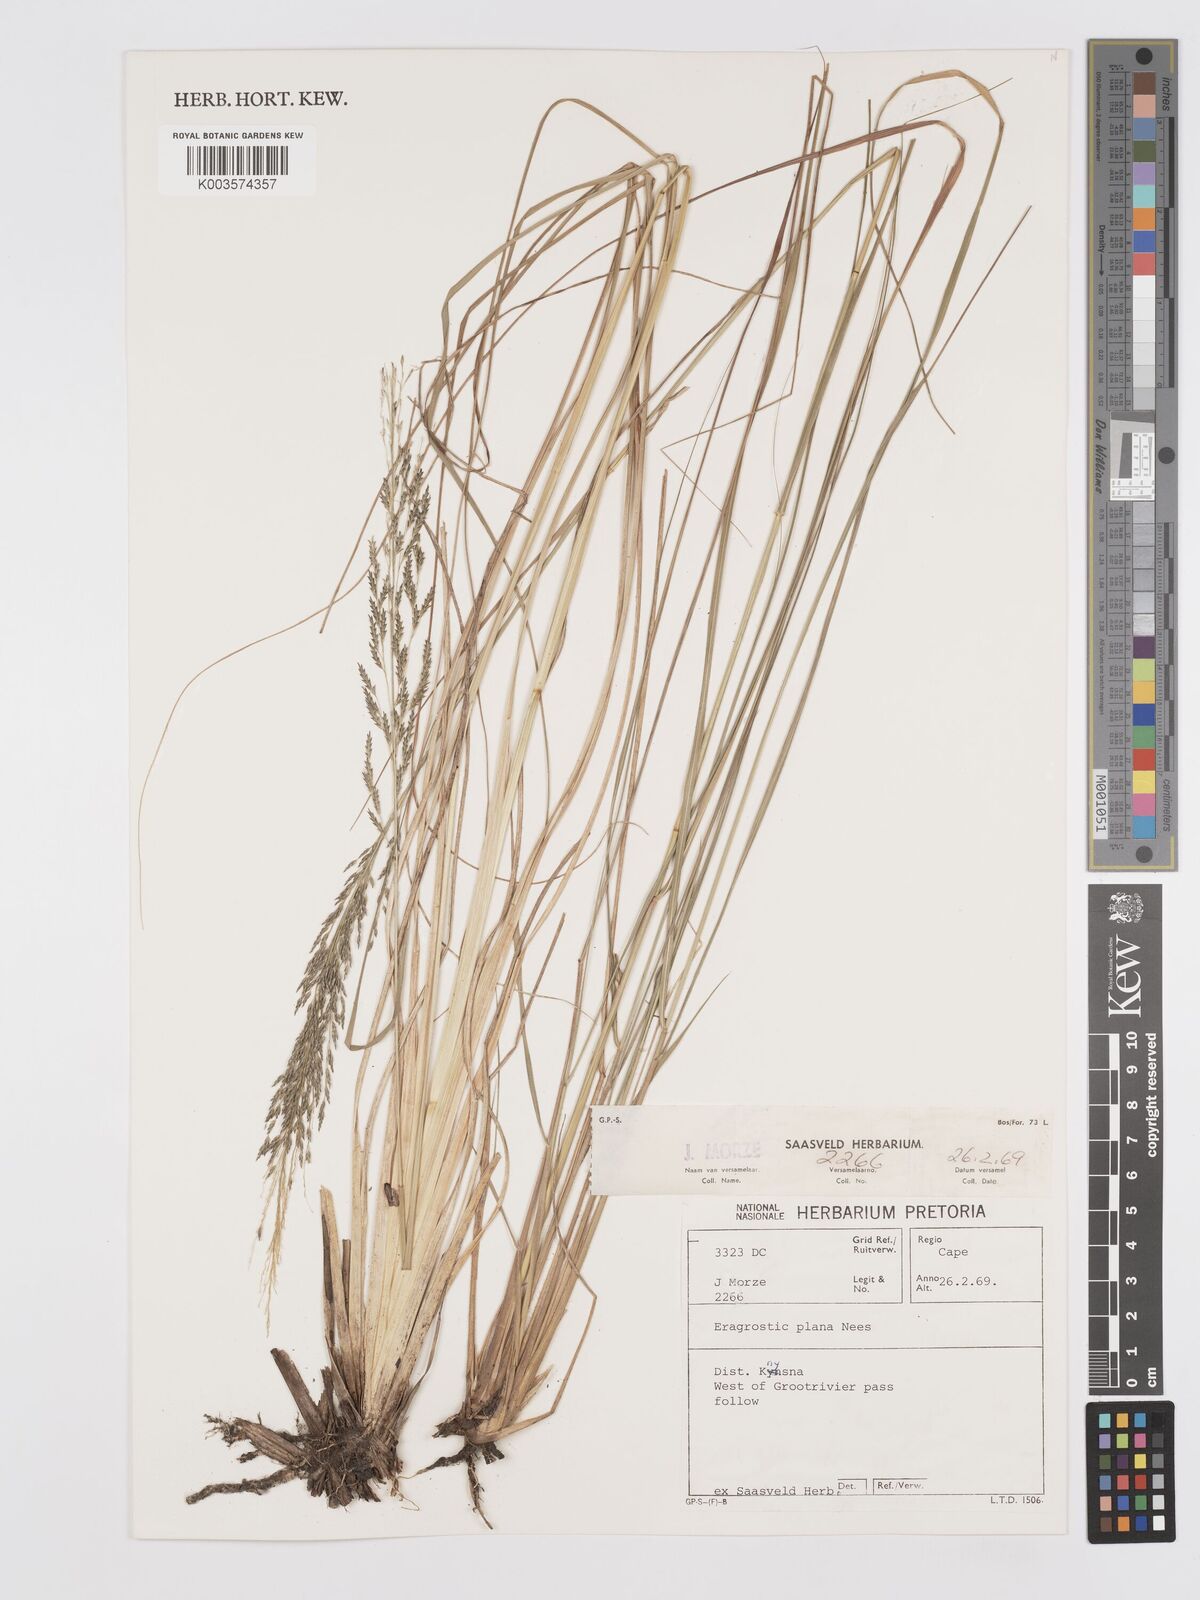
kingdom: Plantae
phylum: Tracheophyta
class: Liliopsida
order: Poales
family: Poaceae
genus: Eragrostis
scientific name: Eragrostis plana
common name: South african lovegrass
